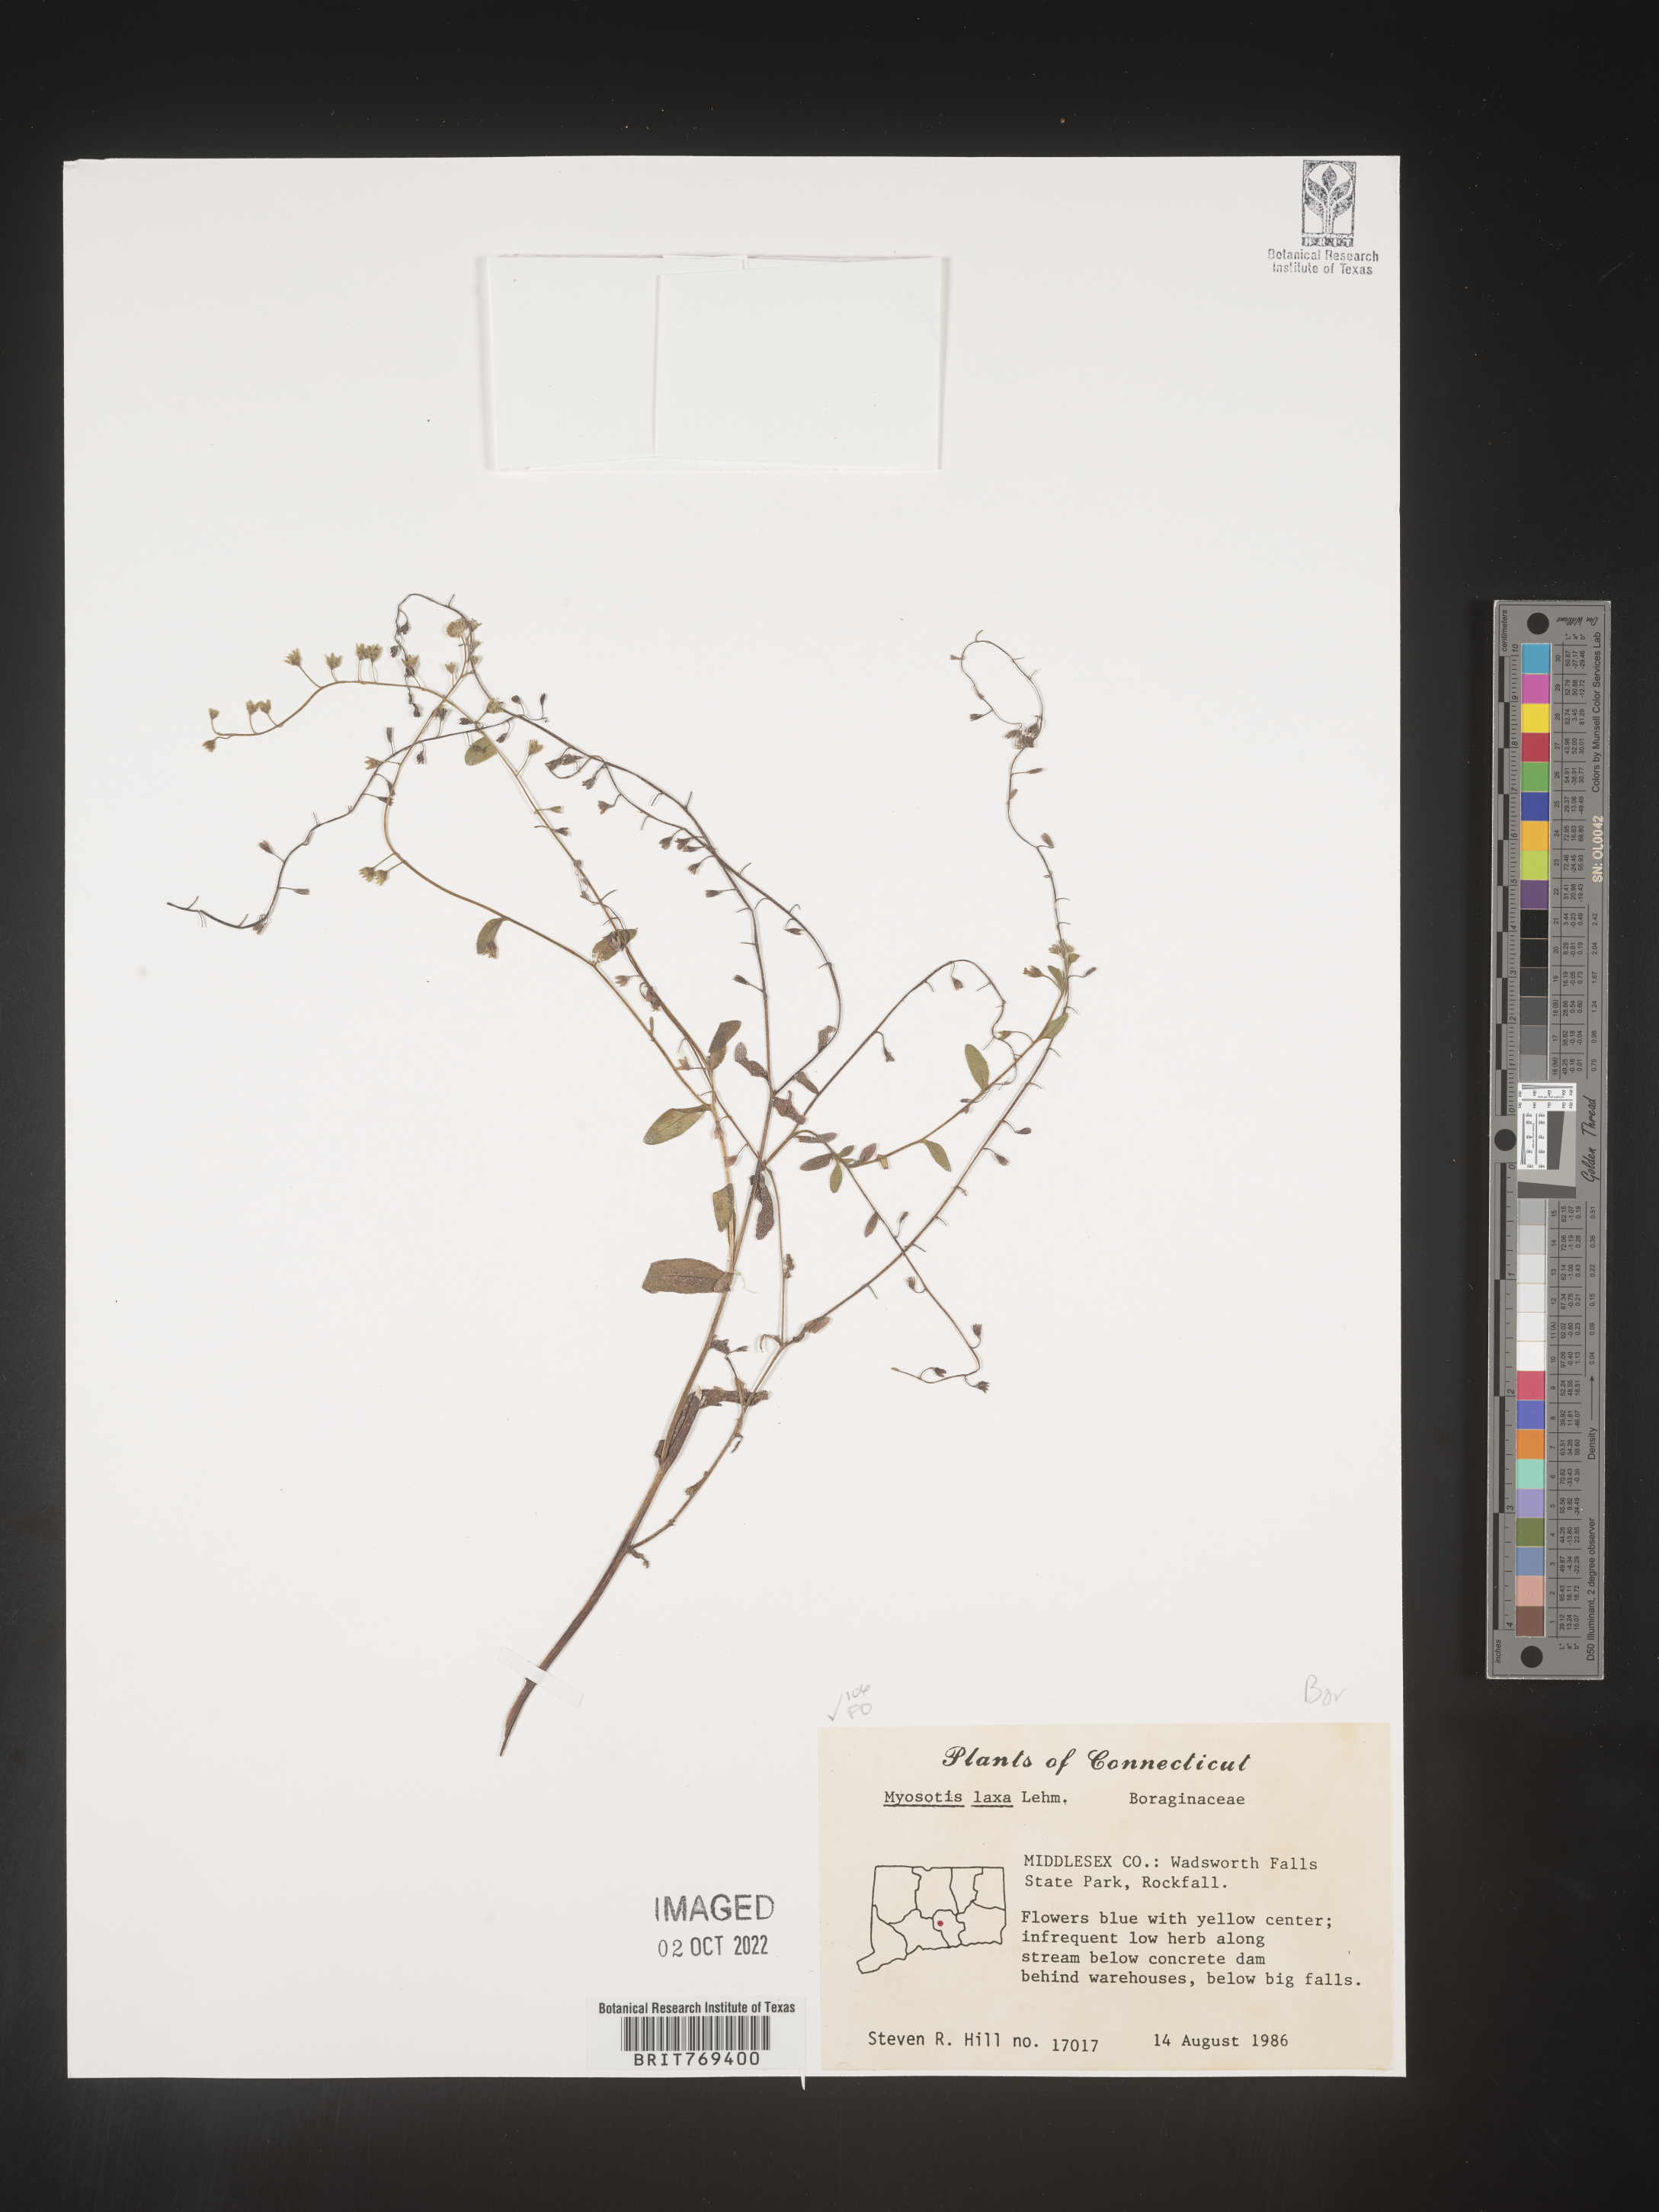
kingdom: Plantae
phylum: Tracheophyta
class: Magnoliopsida
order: Boraginales
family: Boraginaceae
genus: Myosotis
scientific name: Myosotis
